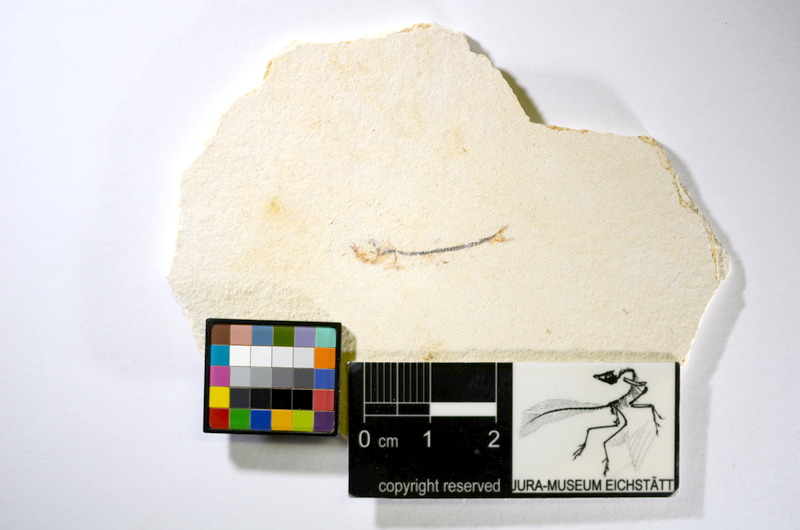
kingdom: Animalia
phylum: Chordata
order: Salmoniformes
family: Orthogonikleithridae
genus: Orthogonikleithrus
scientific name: Orthogonikleithrus hoelli
